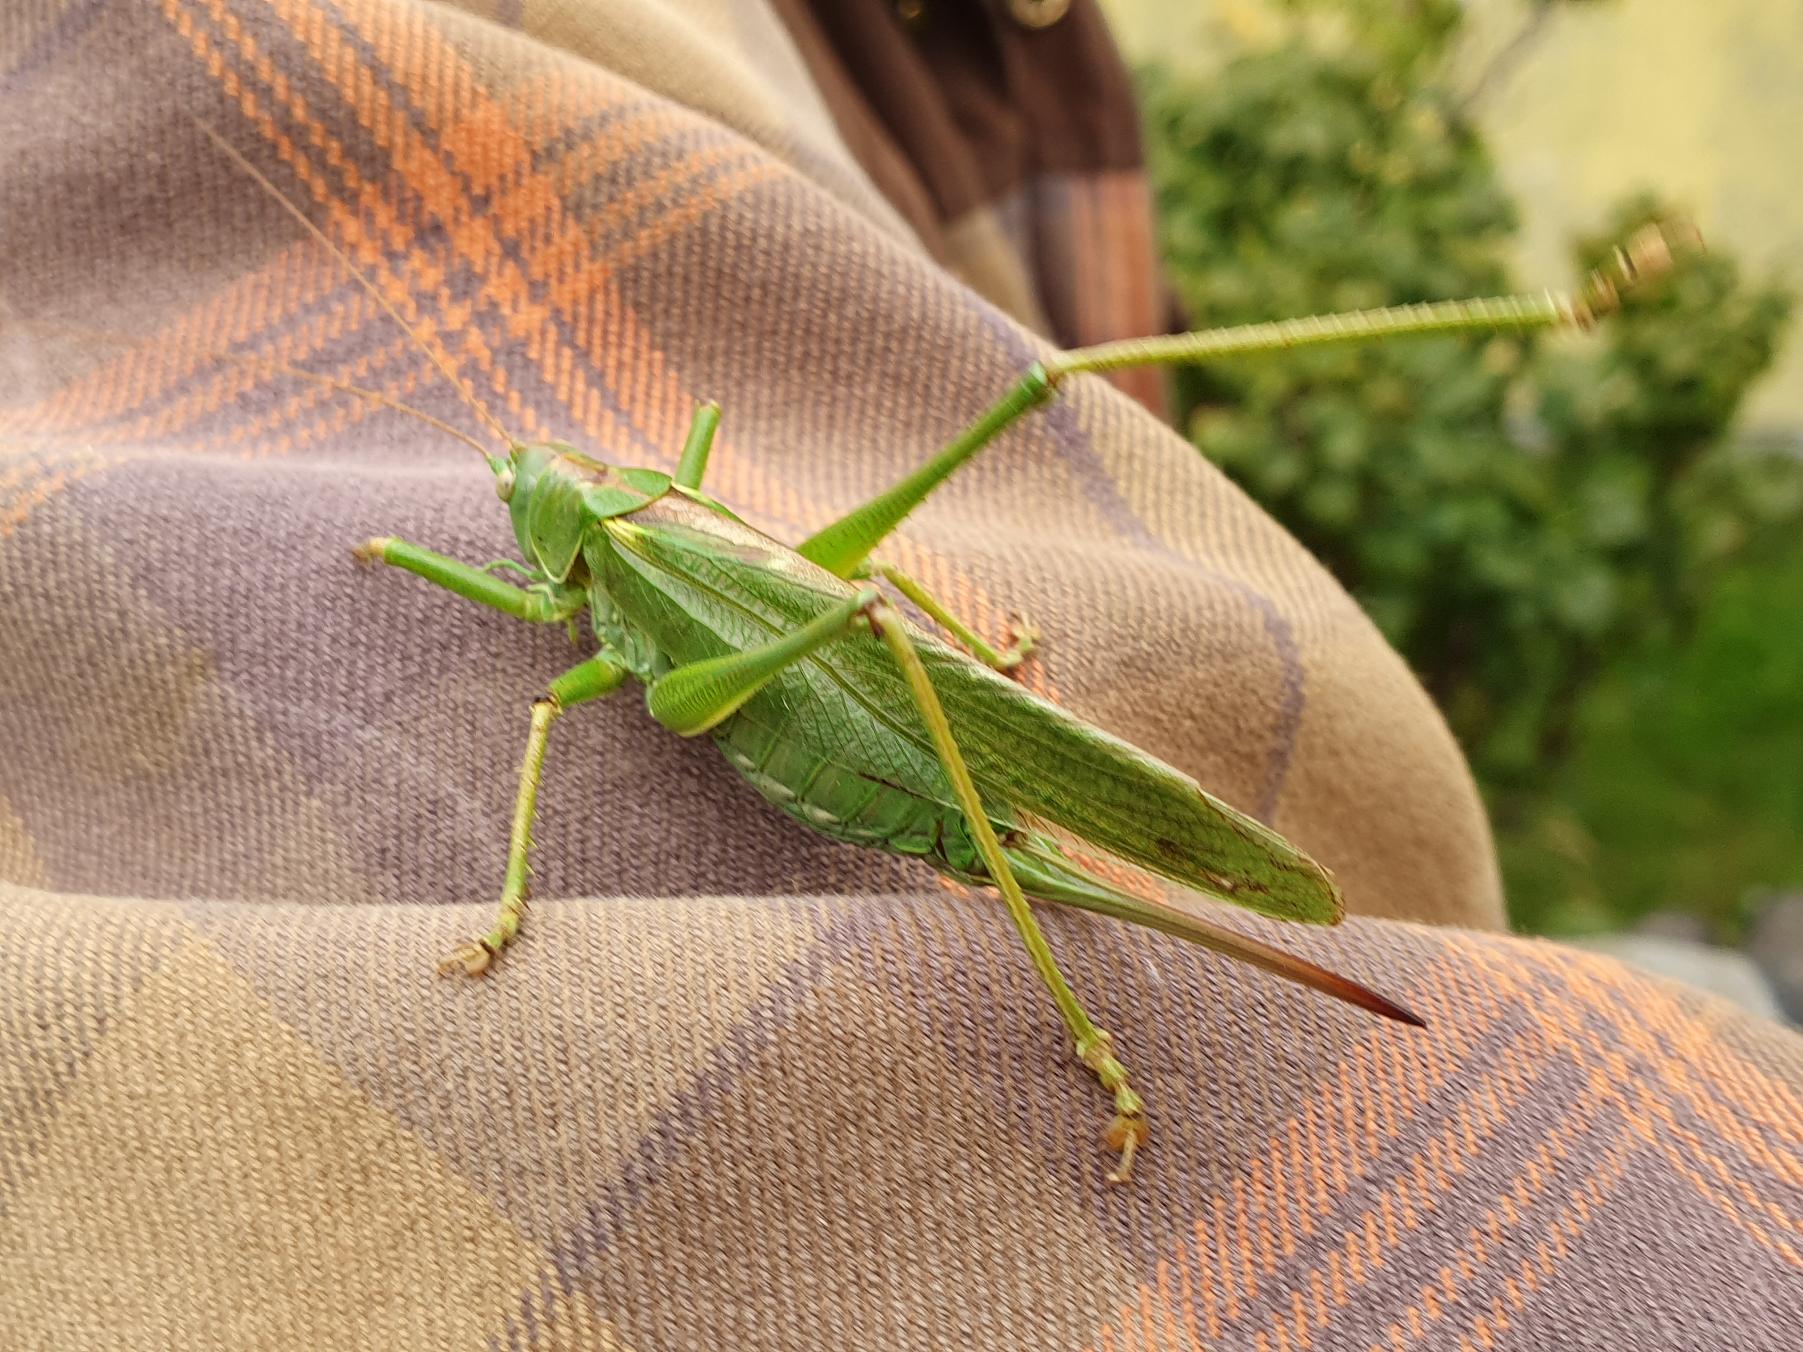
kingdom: Animalia
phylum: Arthropoda
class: Insecta
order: Orthoptera
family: Tettigoniidae
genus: Tettigonia
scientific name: Tettigonia viridissima
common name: Stor grøn løvgræshoppe
